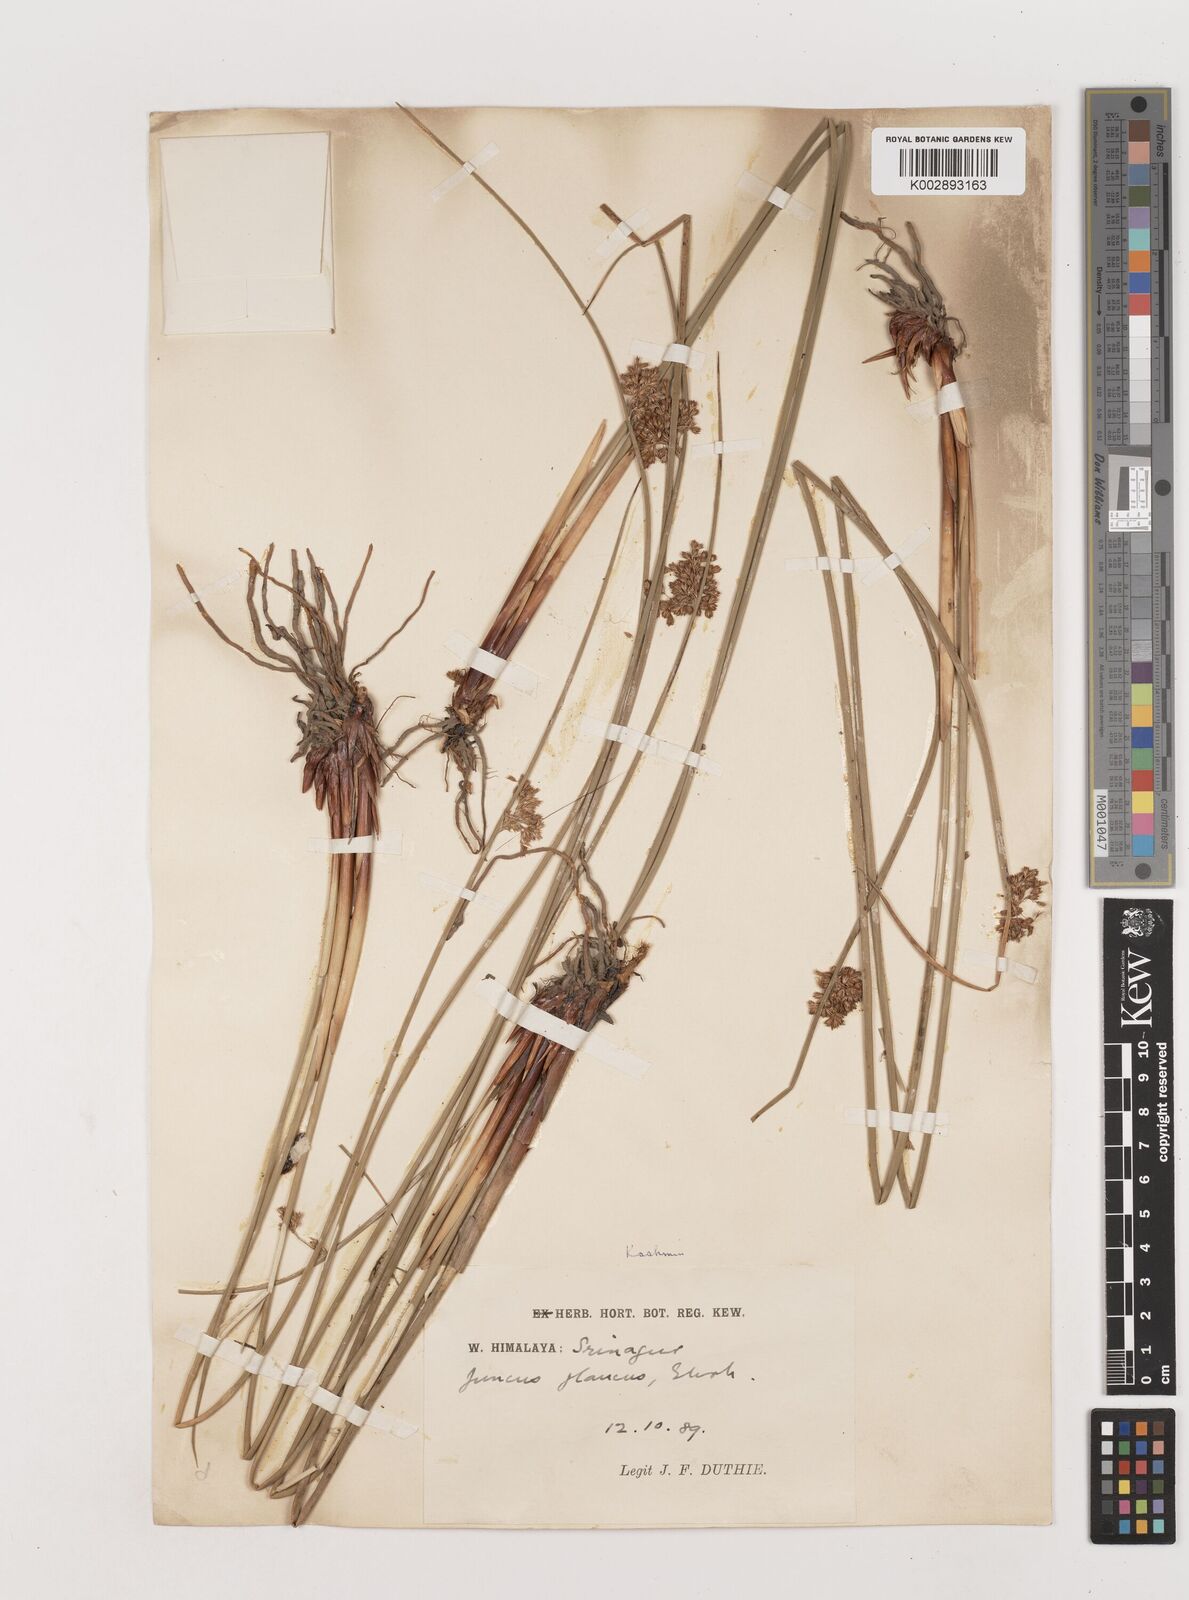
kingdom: Plantae
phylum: Tracheophyta
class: Liliopsida
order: Poales
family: Juncaceae
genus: Juncus
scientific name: Juncus inflexus
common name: Hard rush
